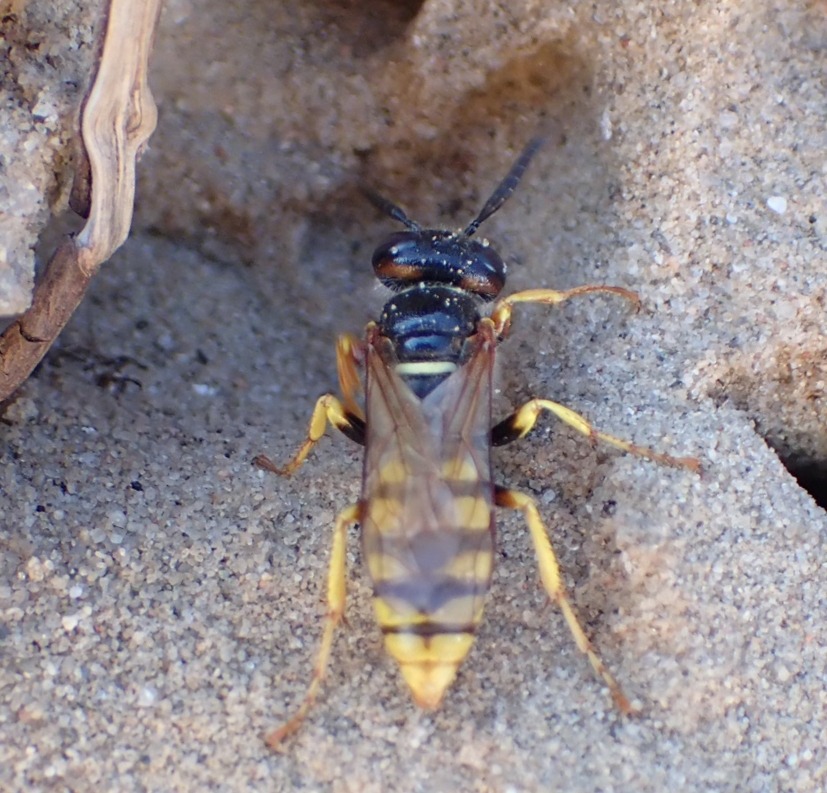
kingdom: Animalia
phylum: Arthropoda
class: Insecta
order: Hymenoptera
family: Crabronidae
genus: Philanthus
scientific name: Philanthus triangulum
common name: Biulv
